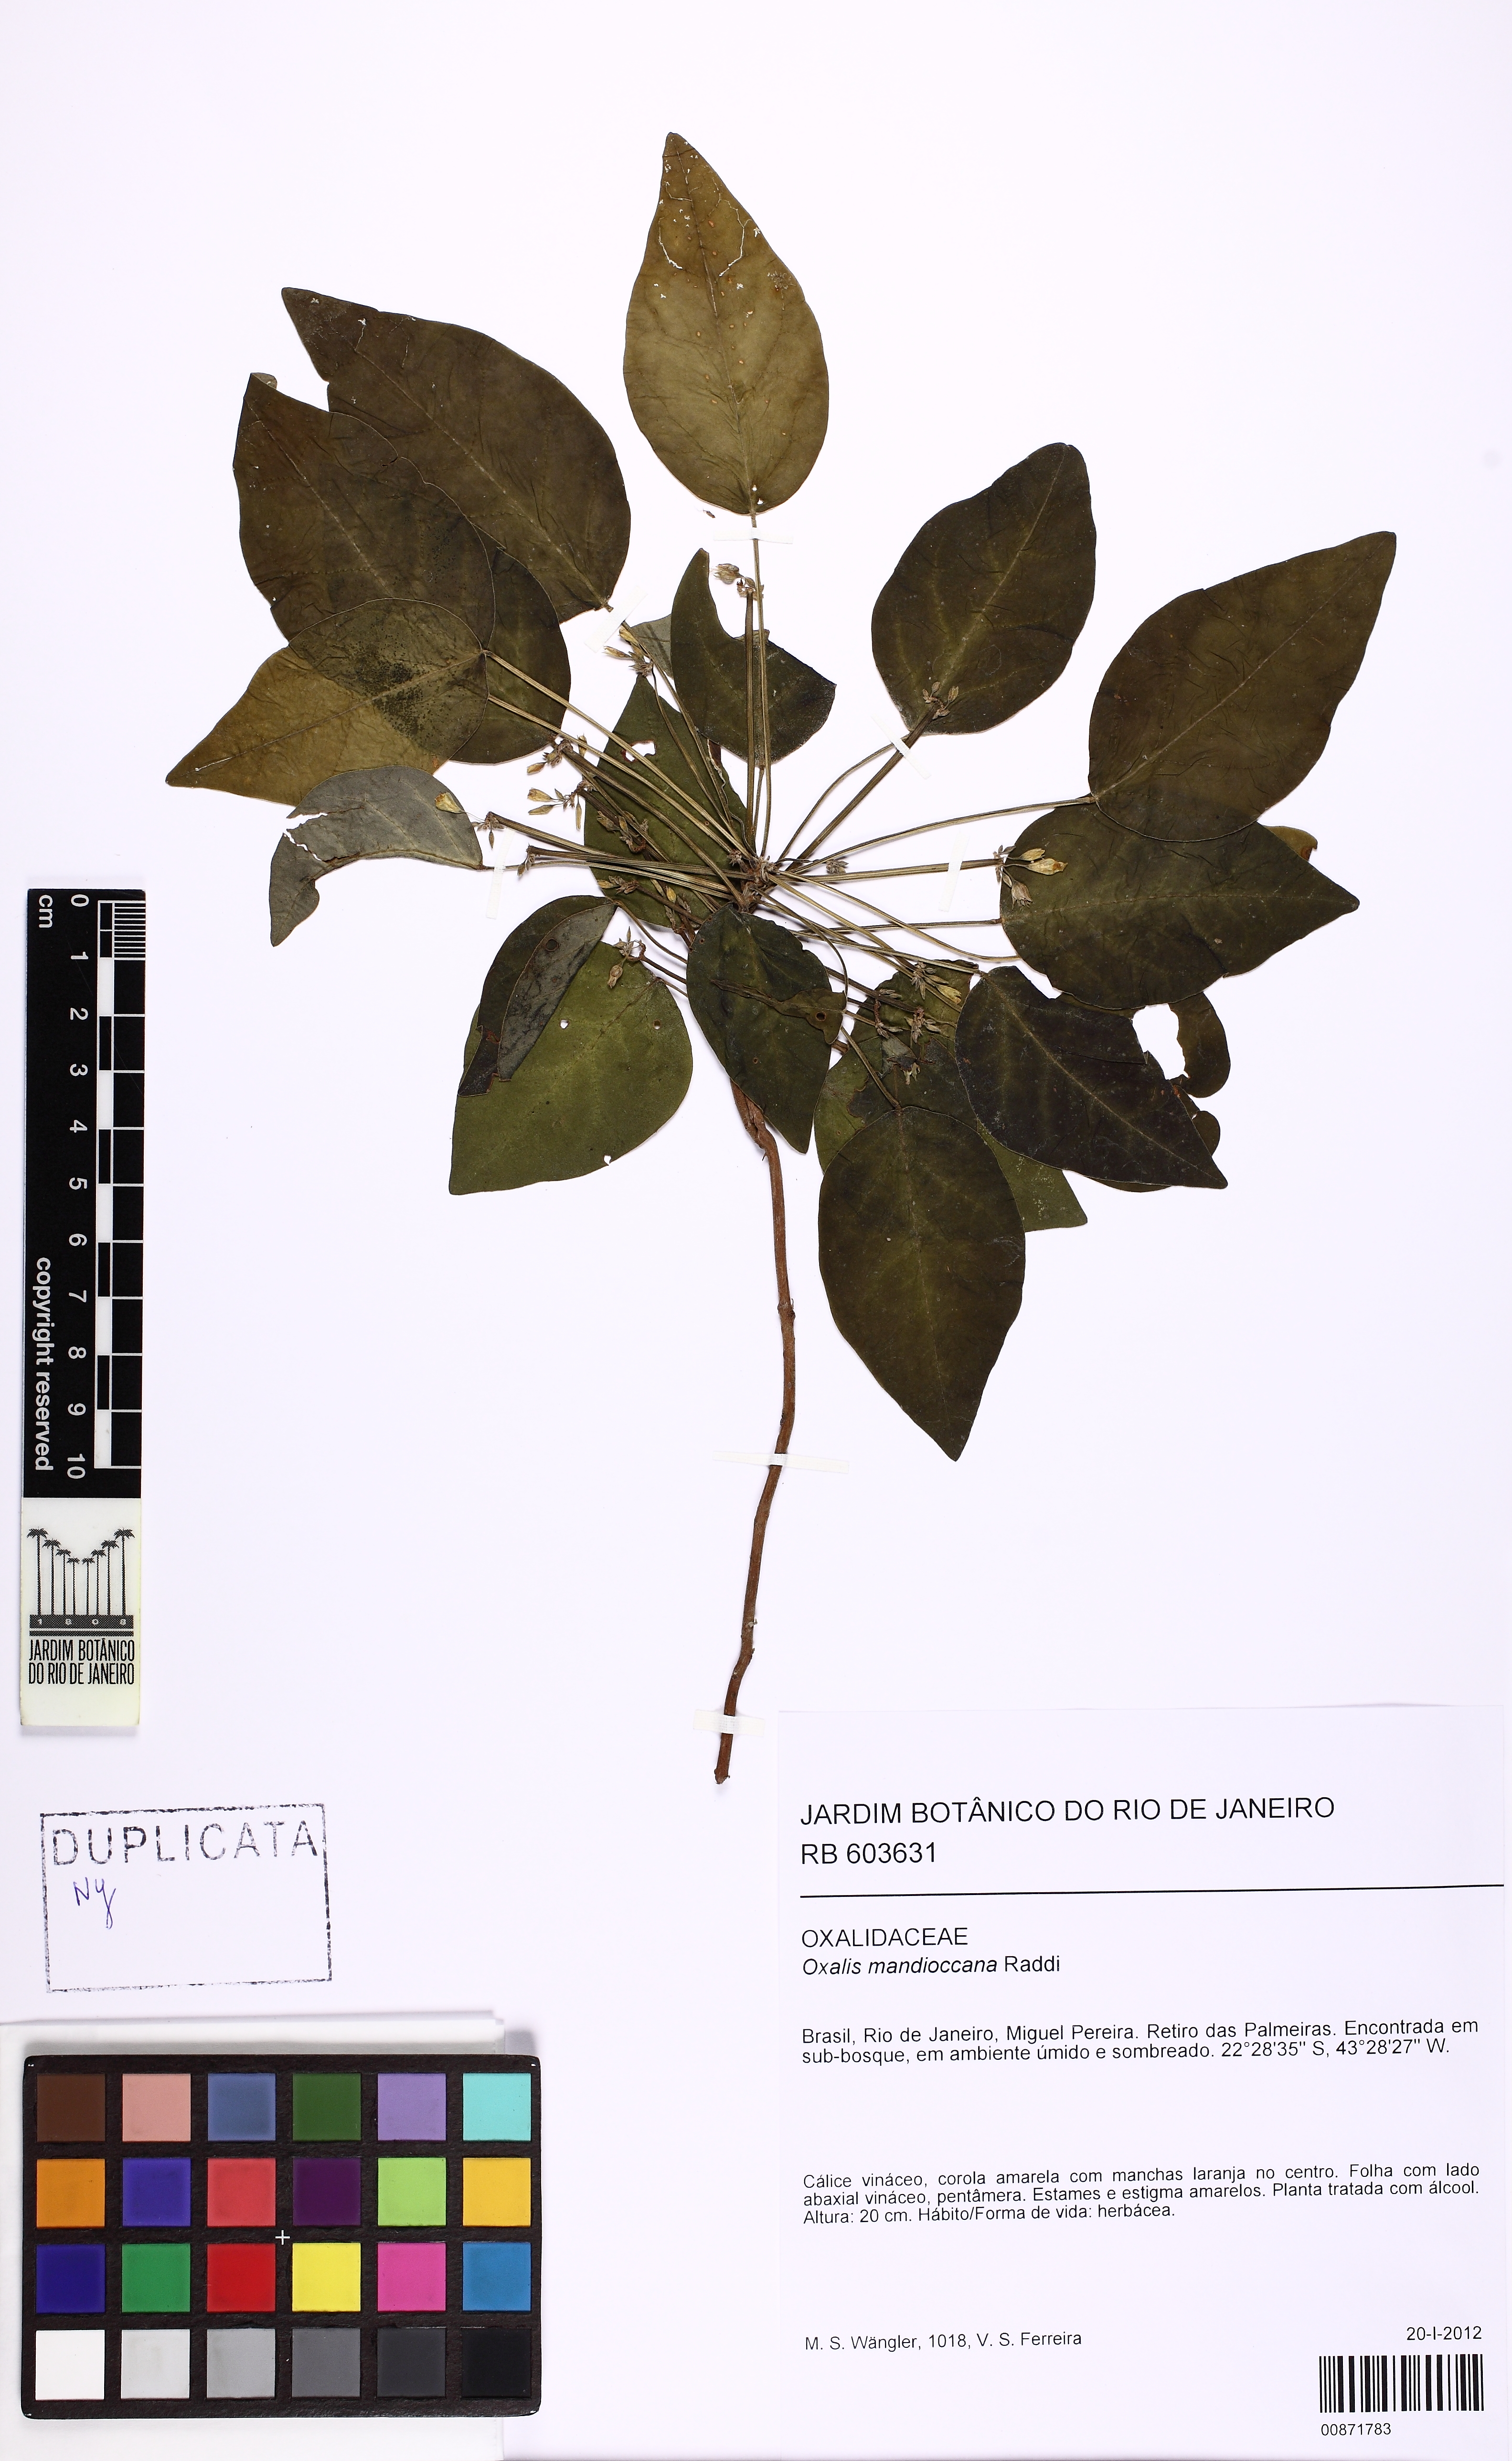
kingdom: Plantae
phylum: Tracheophyta
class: Magnoliopsida
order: Oxalidales
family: Oxalidaceae
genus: Oxalis
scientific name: Oxalis mandioccana
